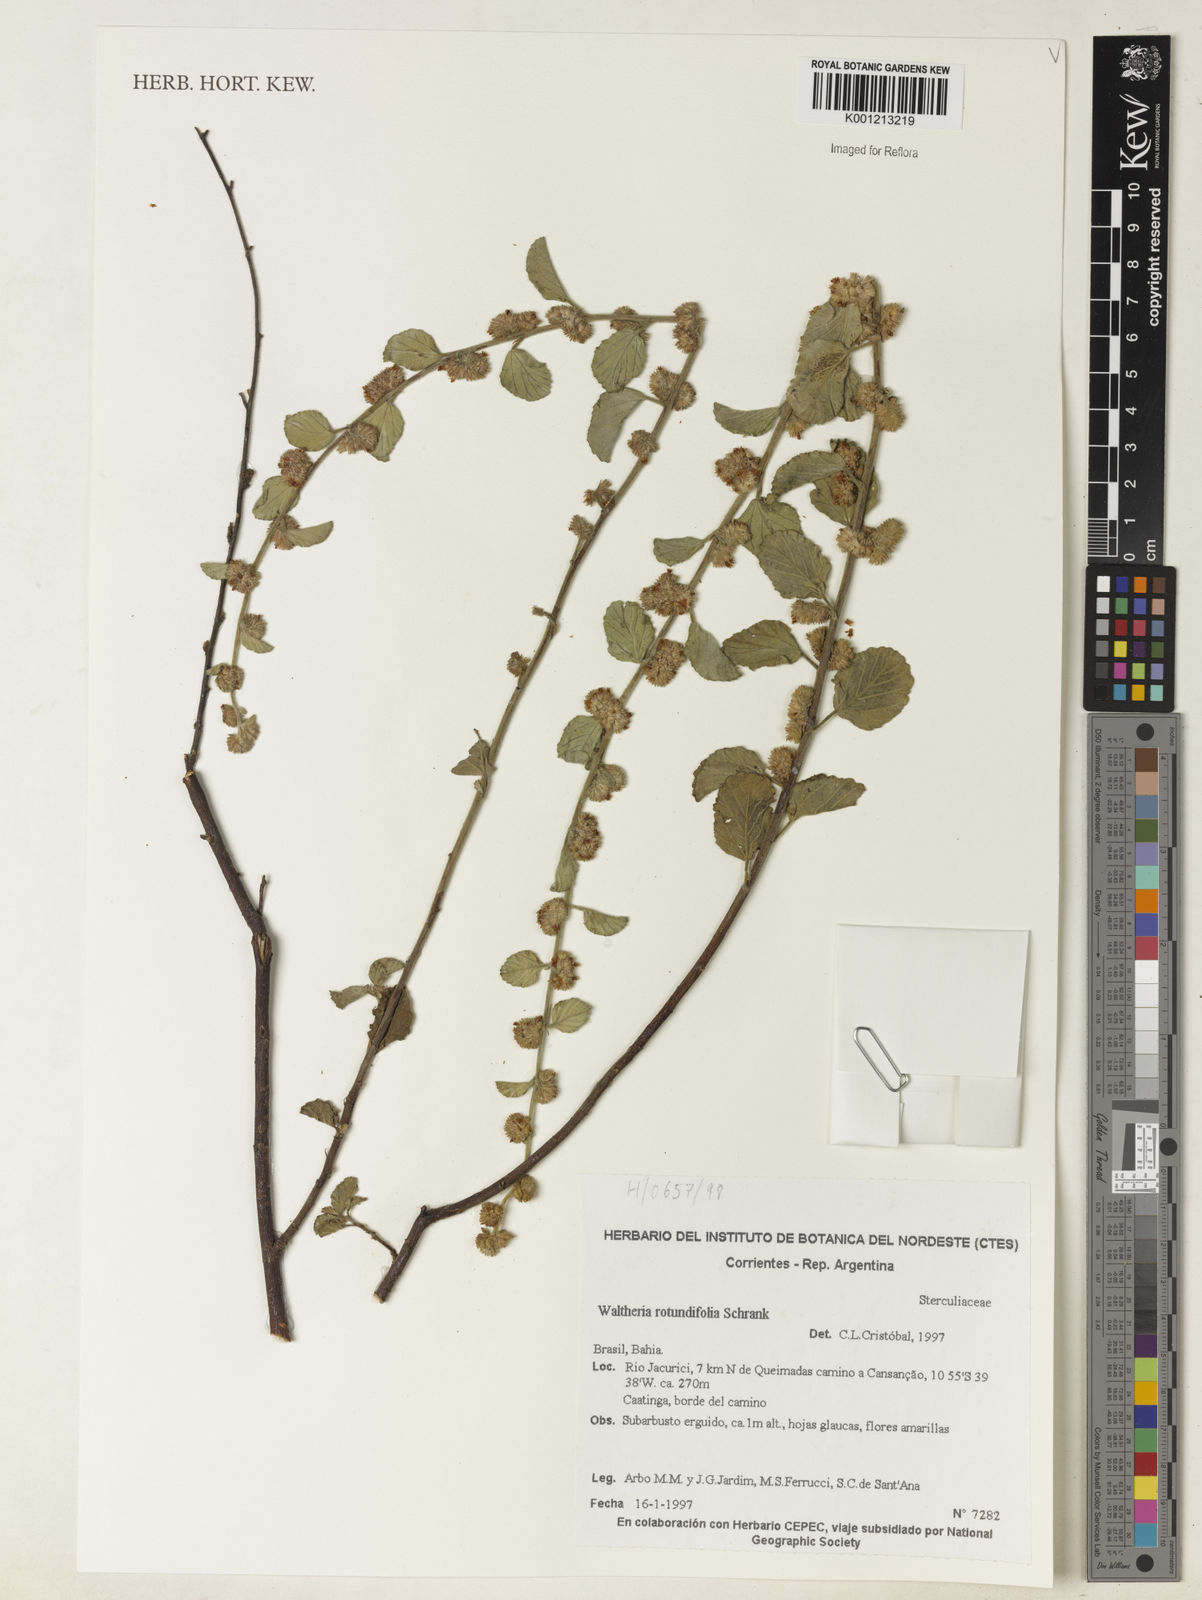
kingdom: Plantae
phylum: Tracheophyta
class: Magnoliopsida
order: Malvales
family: Malvaceae
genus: Waltheria
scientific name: Waltheria rotundifolia
